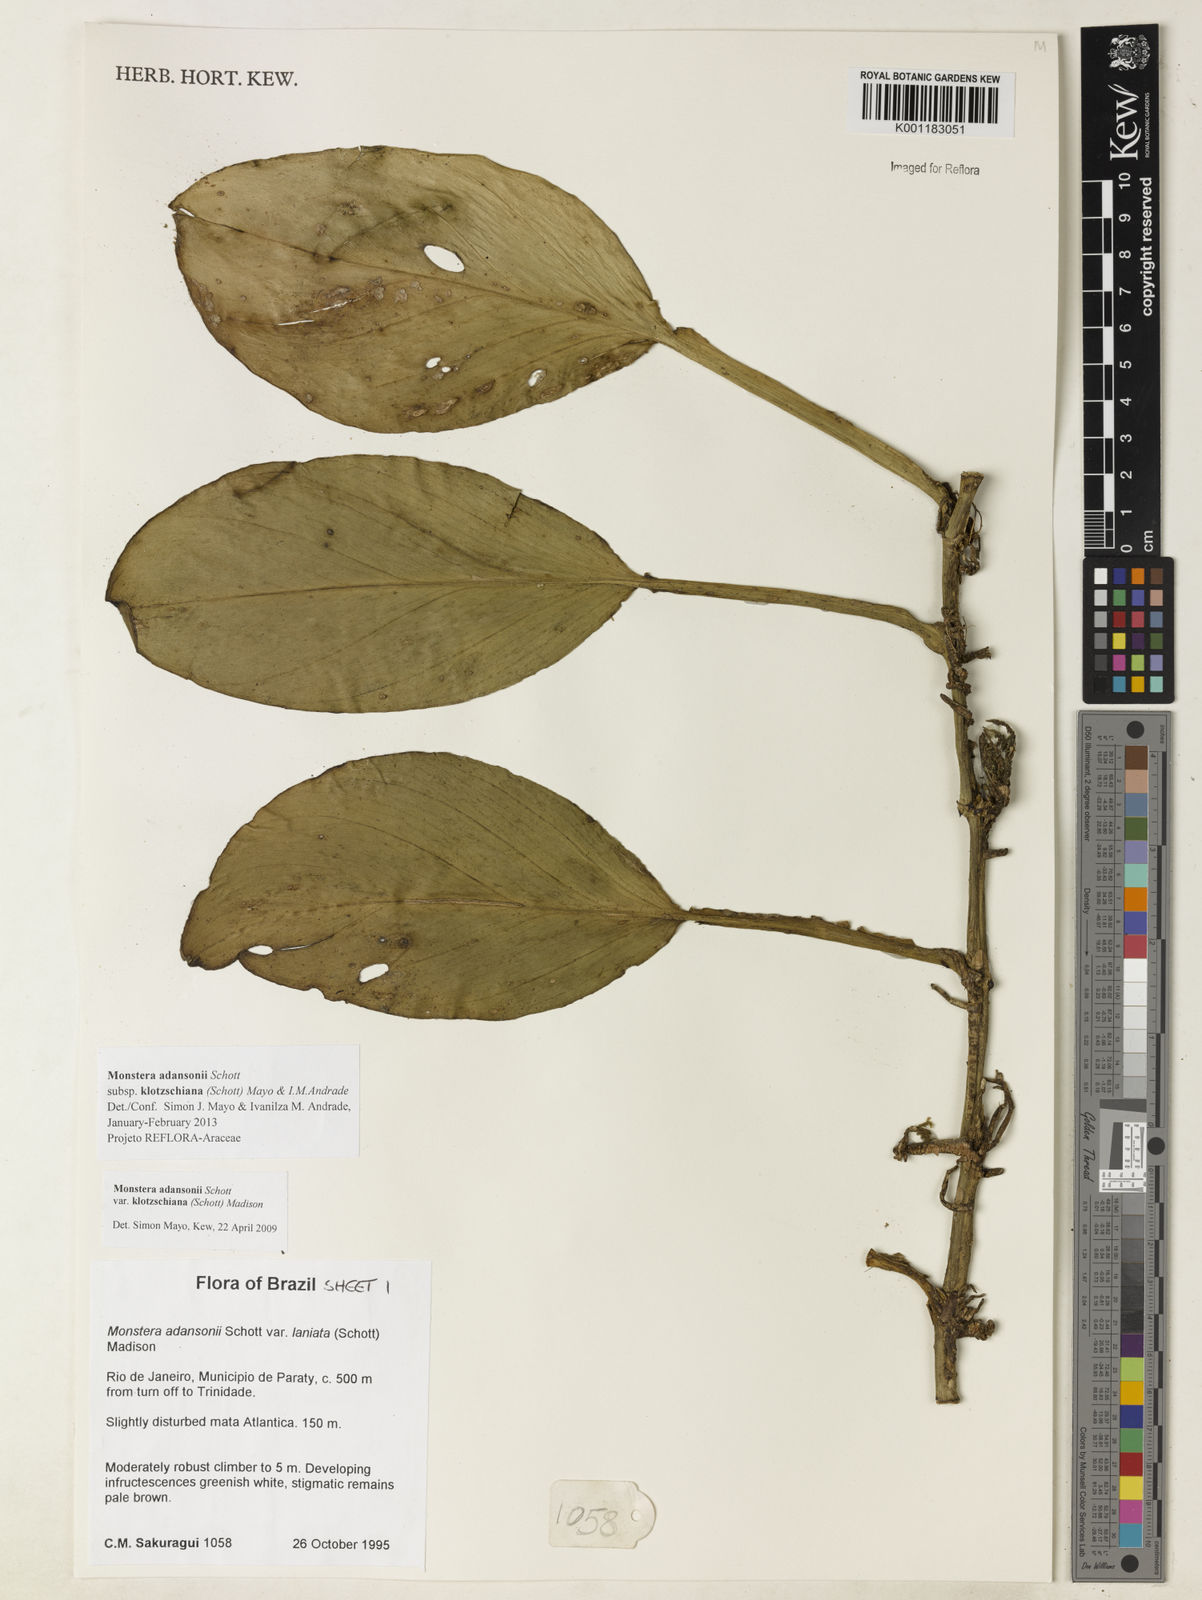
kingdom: Plantae
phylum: Tracheophyta
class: Liliopsida
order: Alismatales
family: Araceae
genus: Monstera
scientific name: Monstera adansonii
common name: Tarovine
